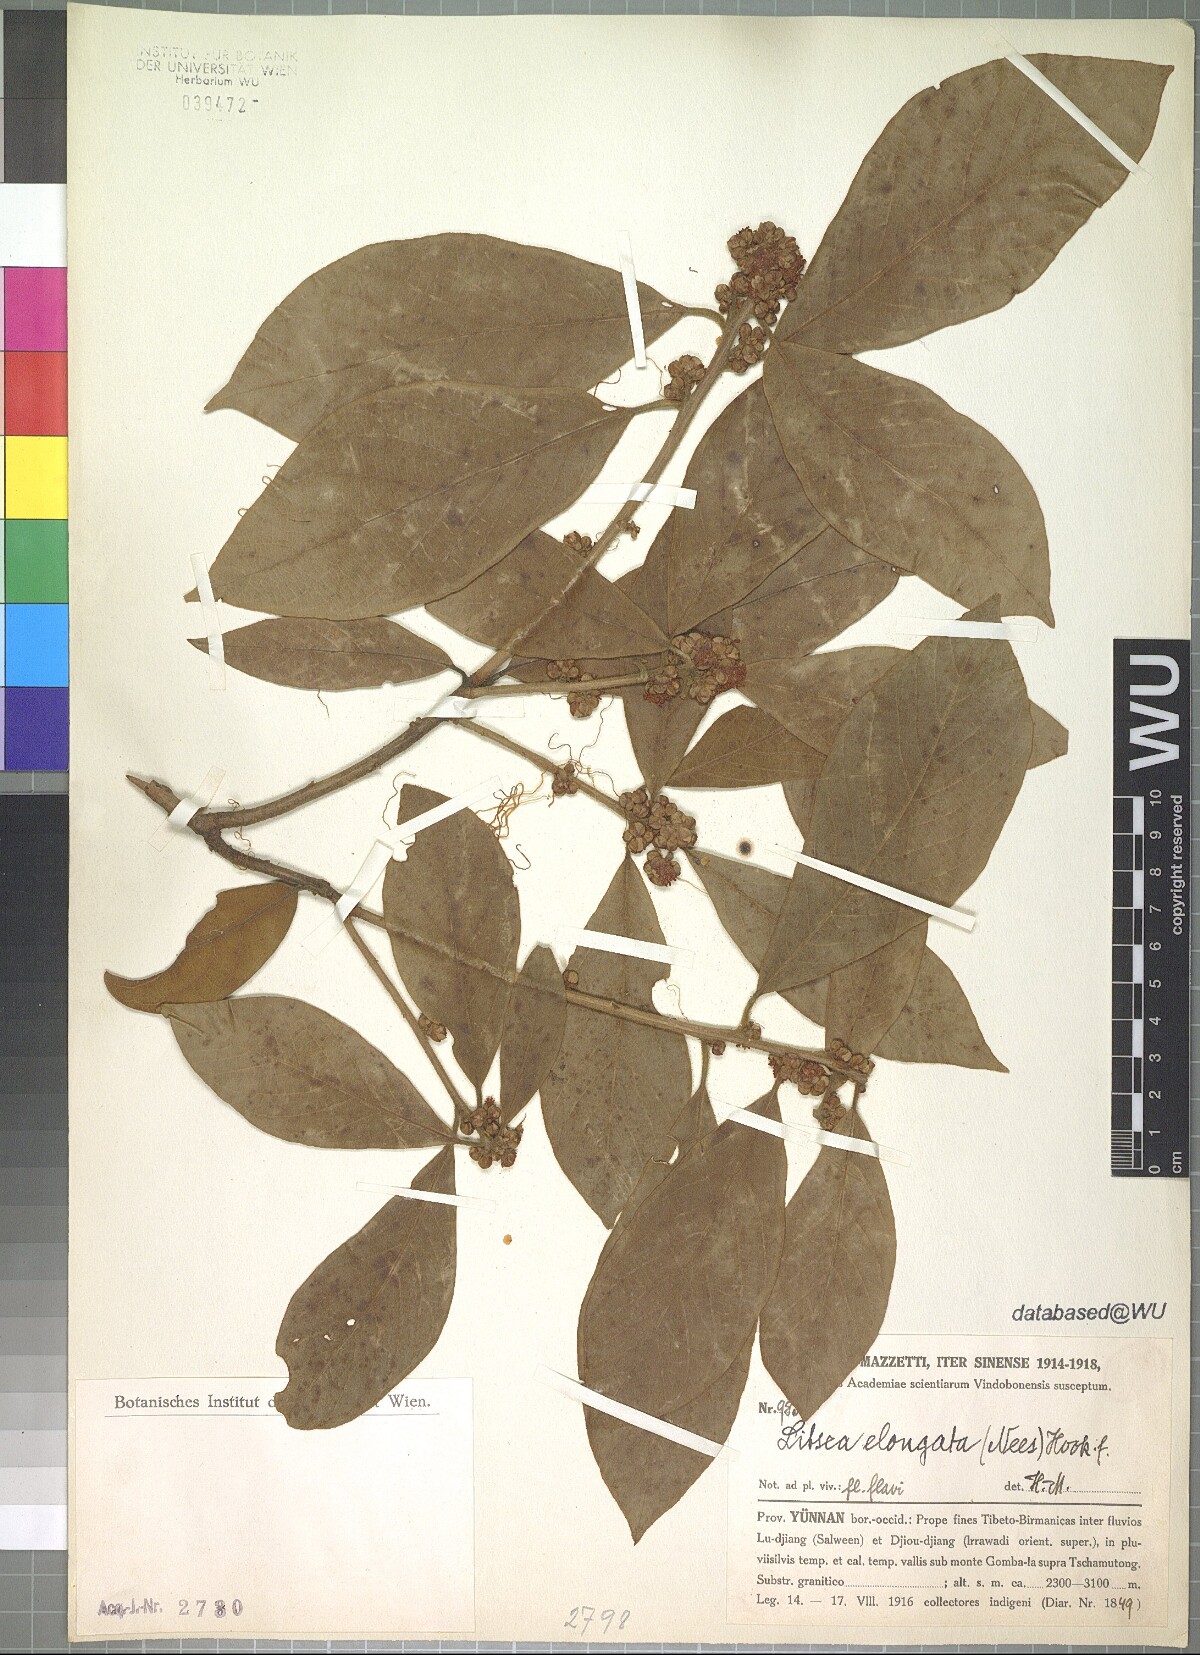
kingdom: Plantae
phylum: Tracheophyta
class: Magnoliopsida
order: Laurales
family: Lauraceae
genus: Litsea
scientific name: Litsea elongata
